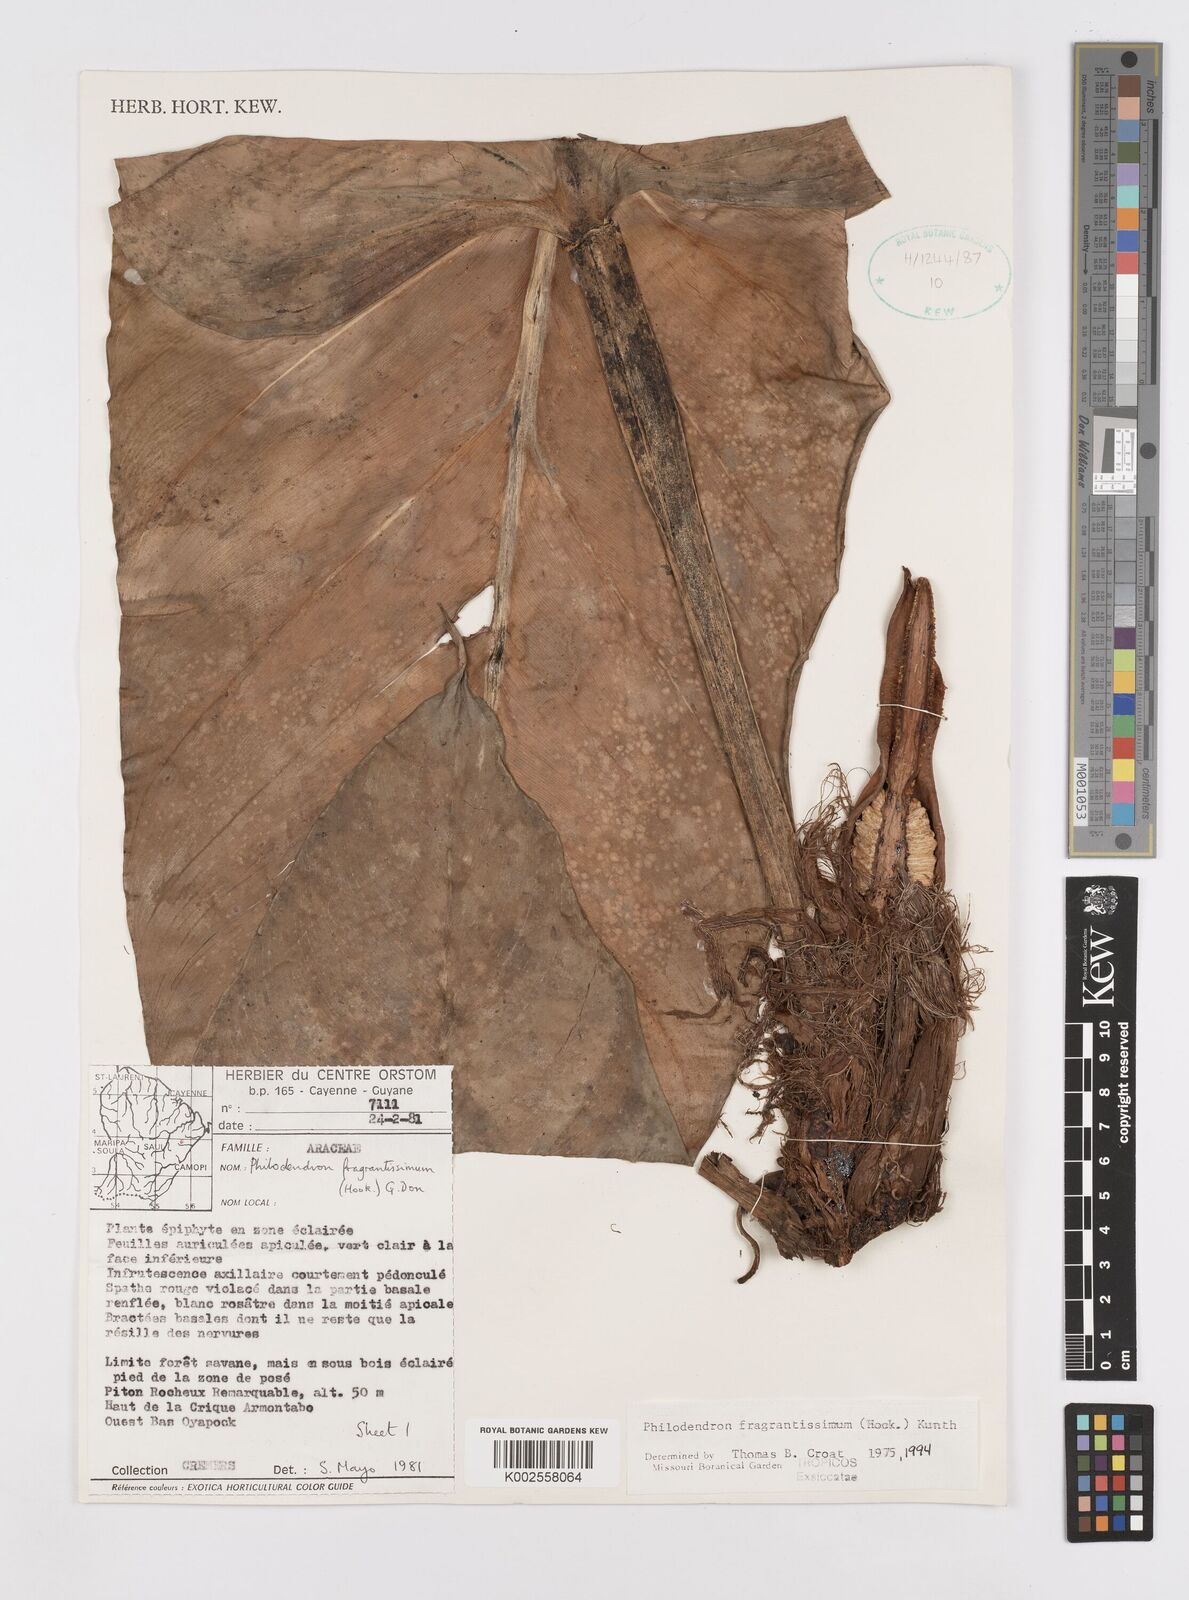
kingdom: Plantae
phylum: Tracheophyta
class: Liliopsida
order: Alismatales
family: Araceae
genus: Philodendron
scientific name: Philodendron fragrantissimum
